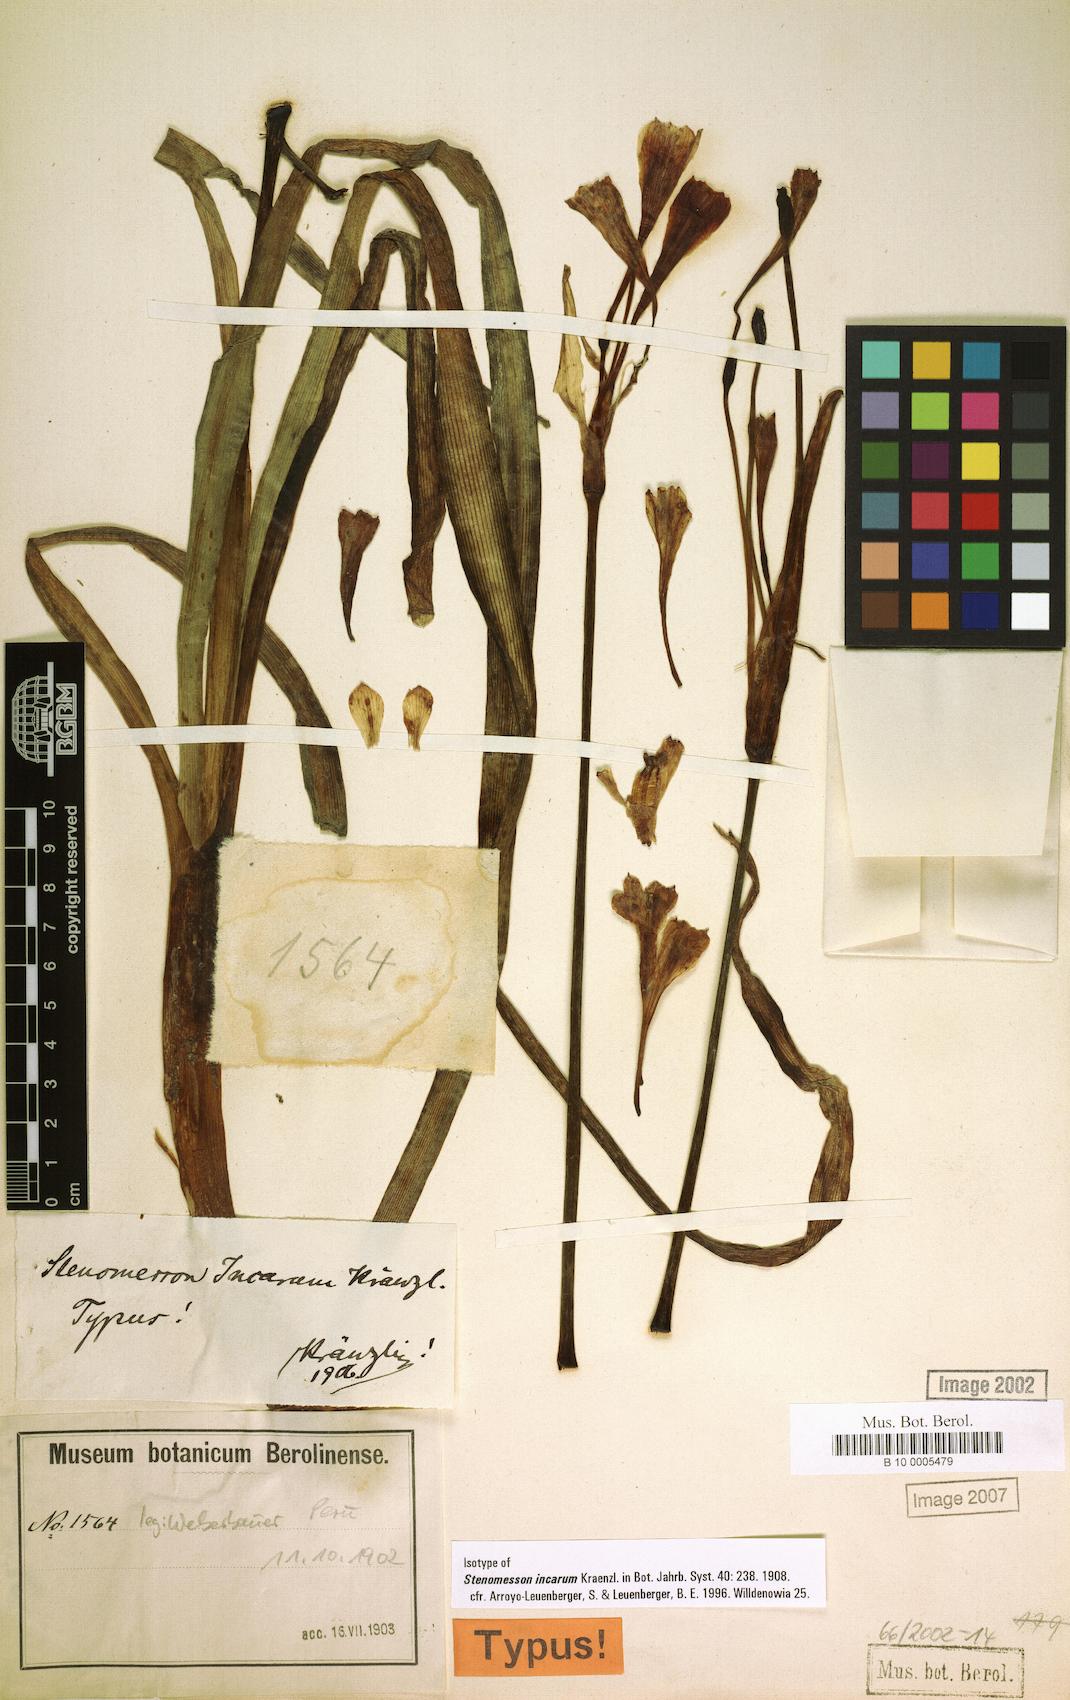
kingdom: Plantae
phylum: Tracheophyta
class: Liliopsida
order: Asparagales
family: Amaryllidaceae
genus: Clinanthus
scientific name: Clinanthus incarum
